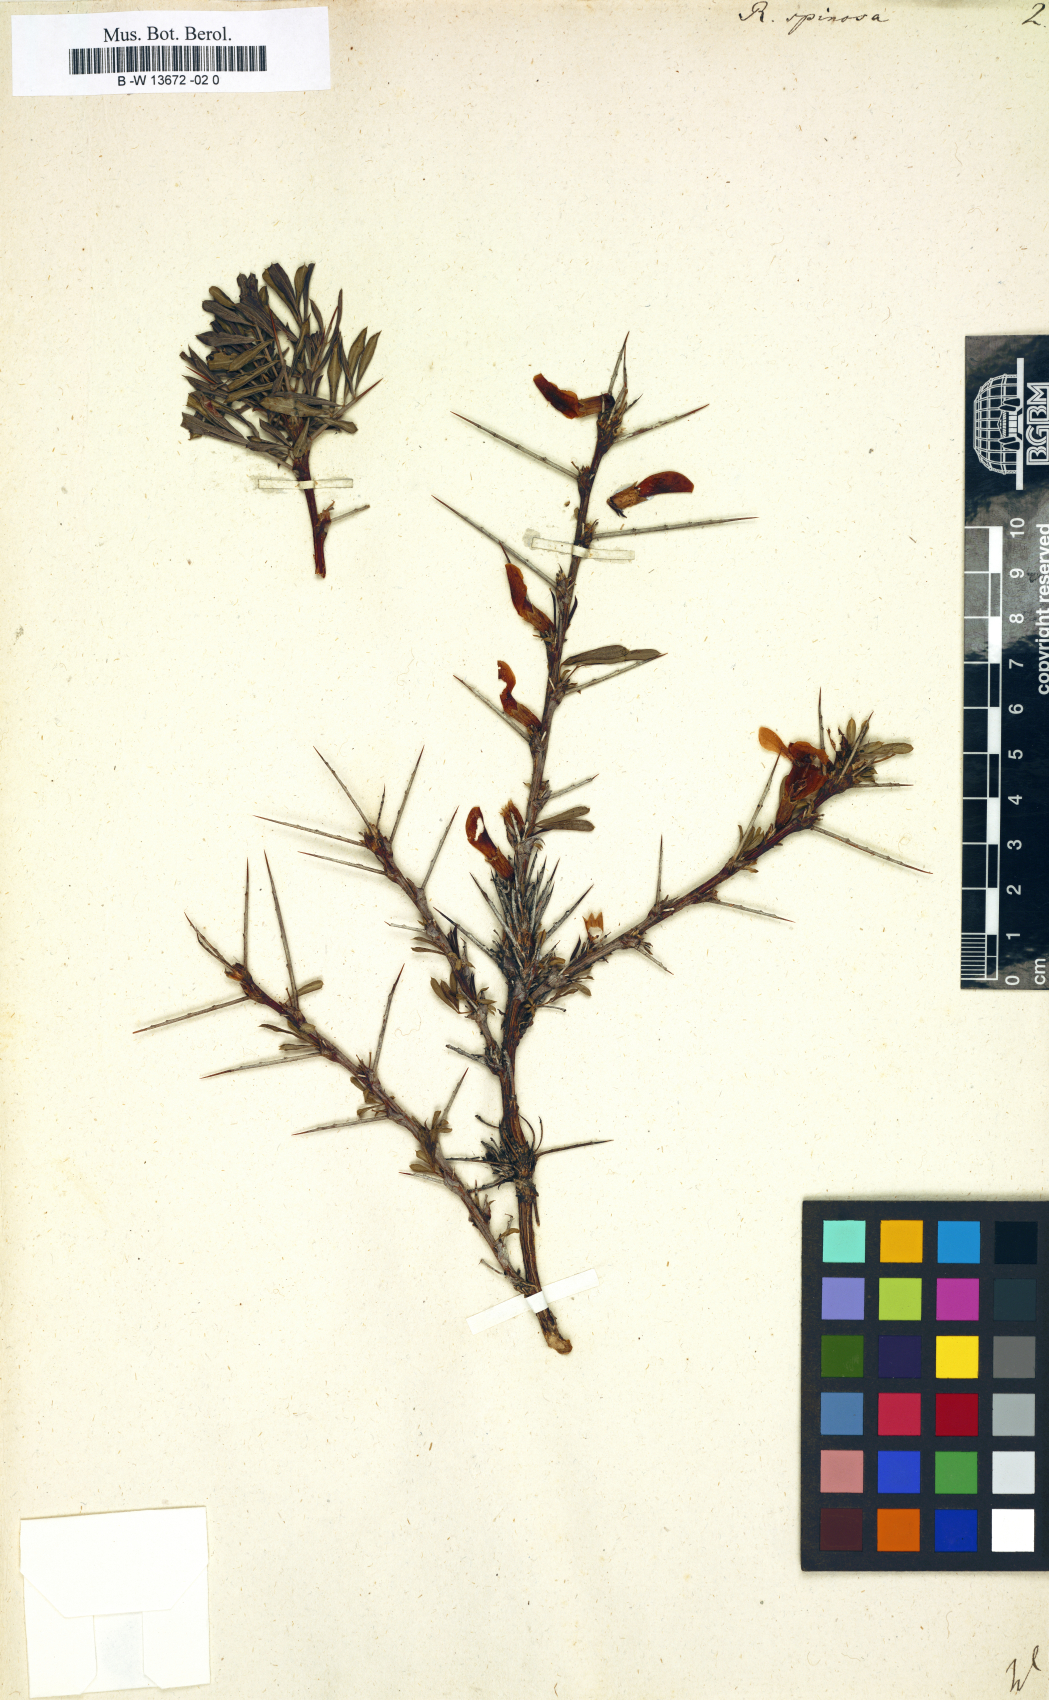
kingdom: Plantae
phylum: Tracheophyta
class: Magnoliopsida
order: Fabales
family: Fabaceae
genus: Caragana
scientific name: Caragana spinosa
